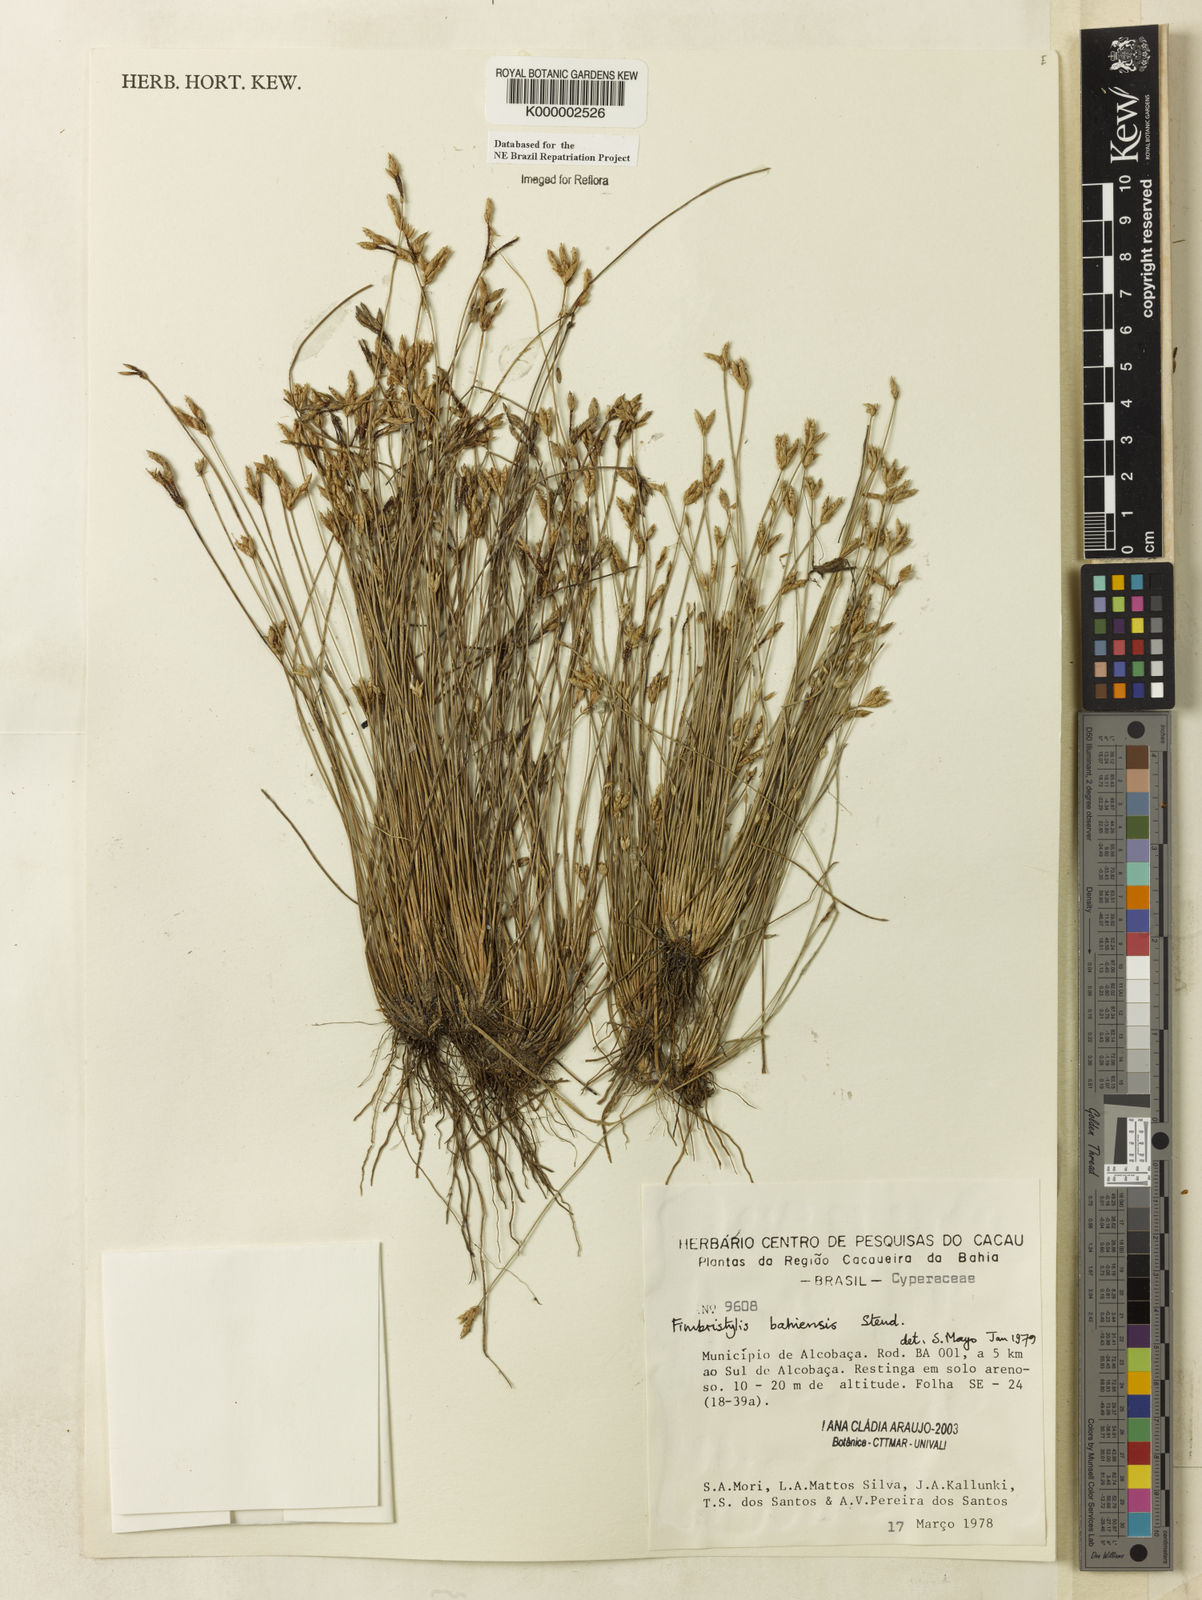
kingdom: Plantae
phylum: Tracheophyta
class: Liliopsida
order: Poales
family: Cyperaceae
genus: Fimbristylis
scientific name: Fimbristylis bahiensis
